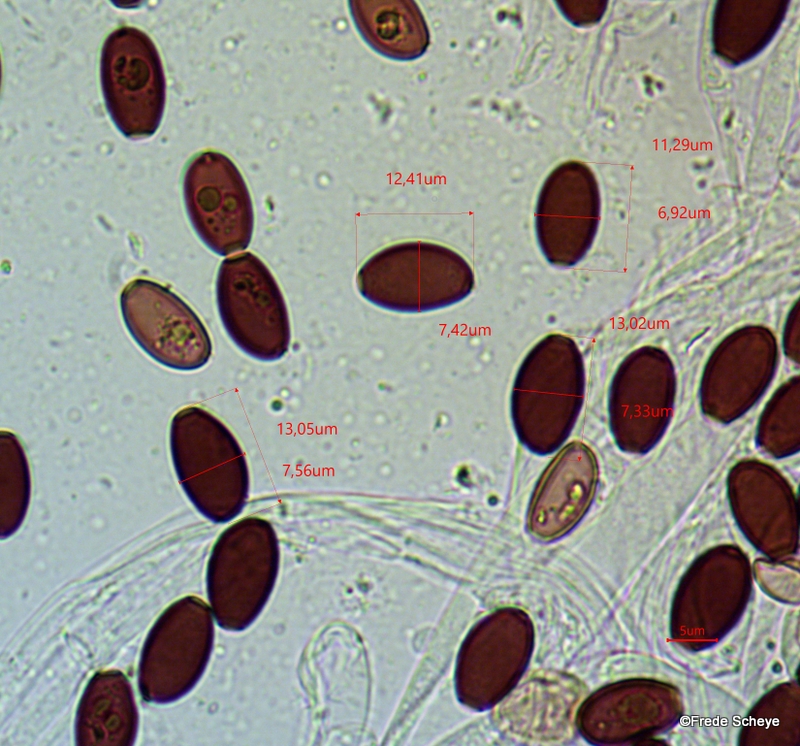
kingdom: Fungi
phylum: Basidiomycota
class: Agaricomycetes
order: Agaricales
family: Psathyrellaceae
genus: Psathyrella
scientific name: Psathyrella corrugis
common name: rødægget mørkhat
